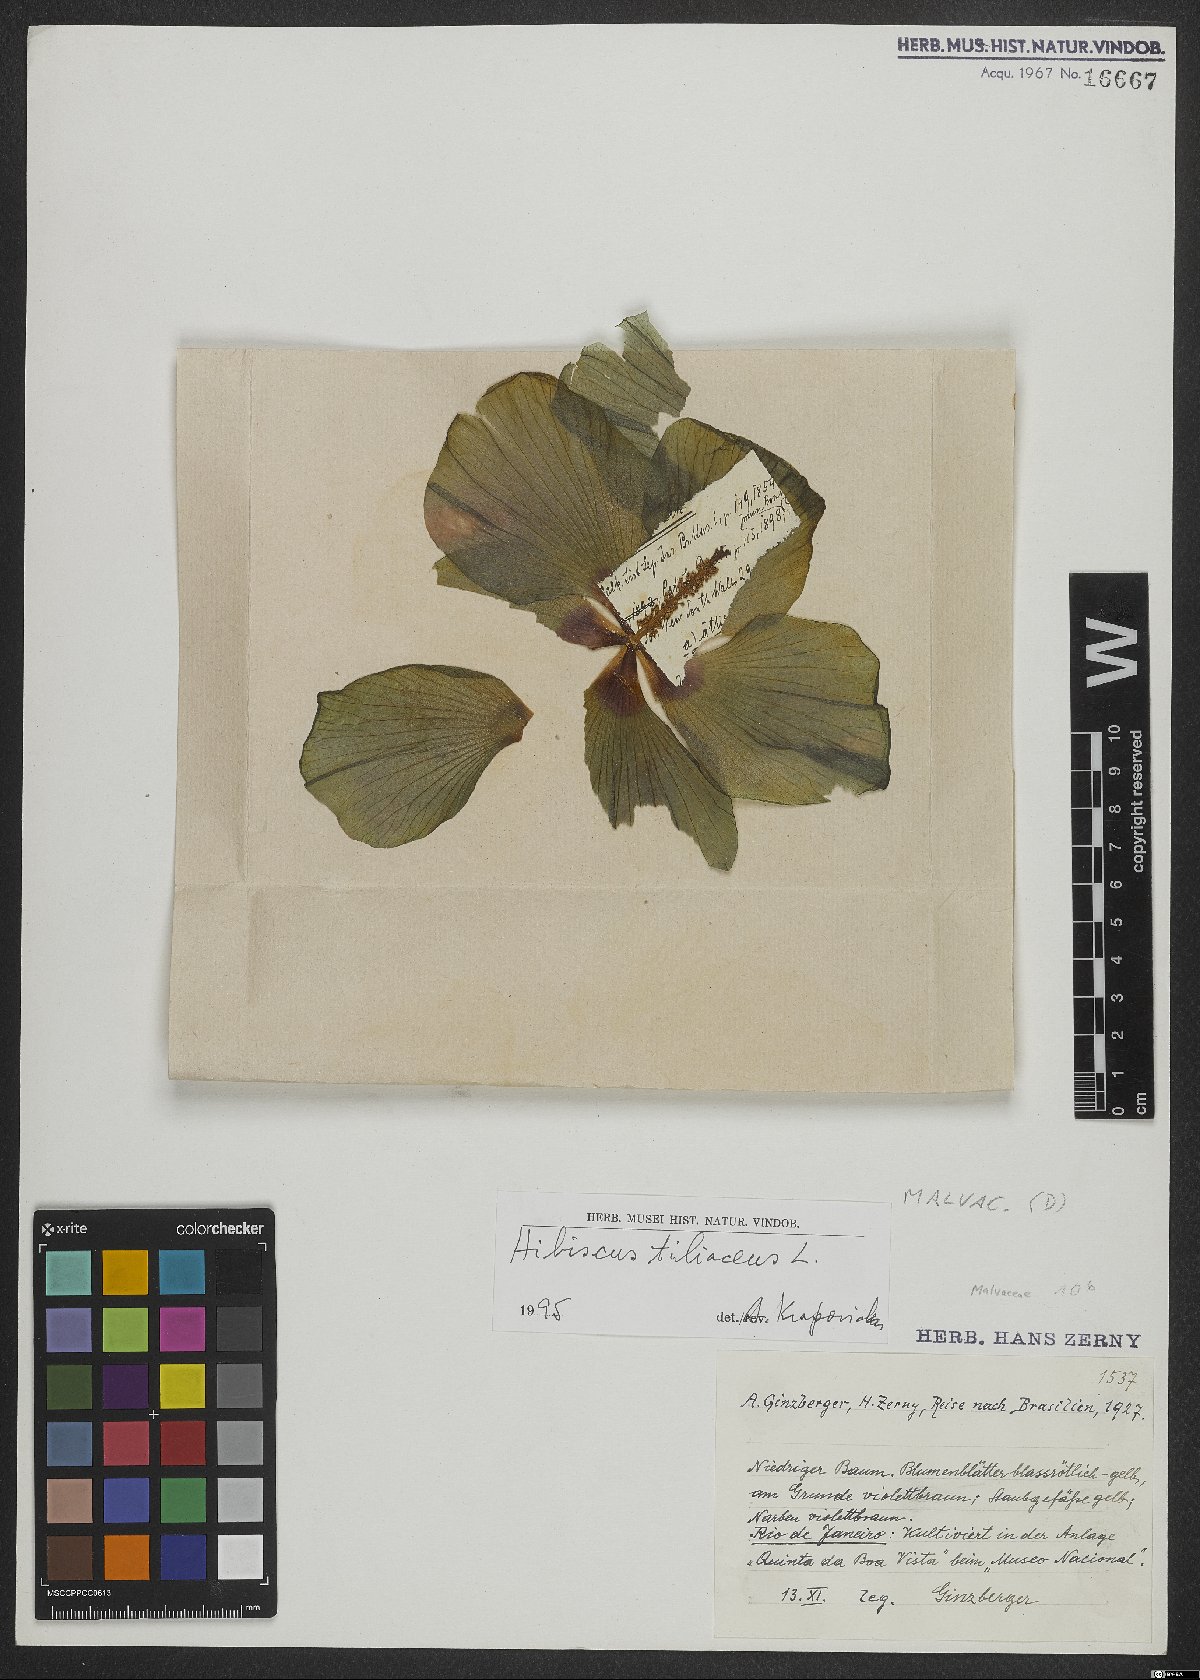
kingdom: Plantae
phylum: Tracheophyta
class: Magnoliopsida
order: Malvales
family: Malvaceae
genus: Talipariti
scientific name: Talipariti tiliaceum
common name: Sea hibiscus
